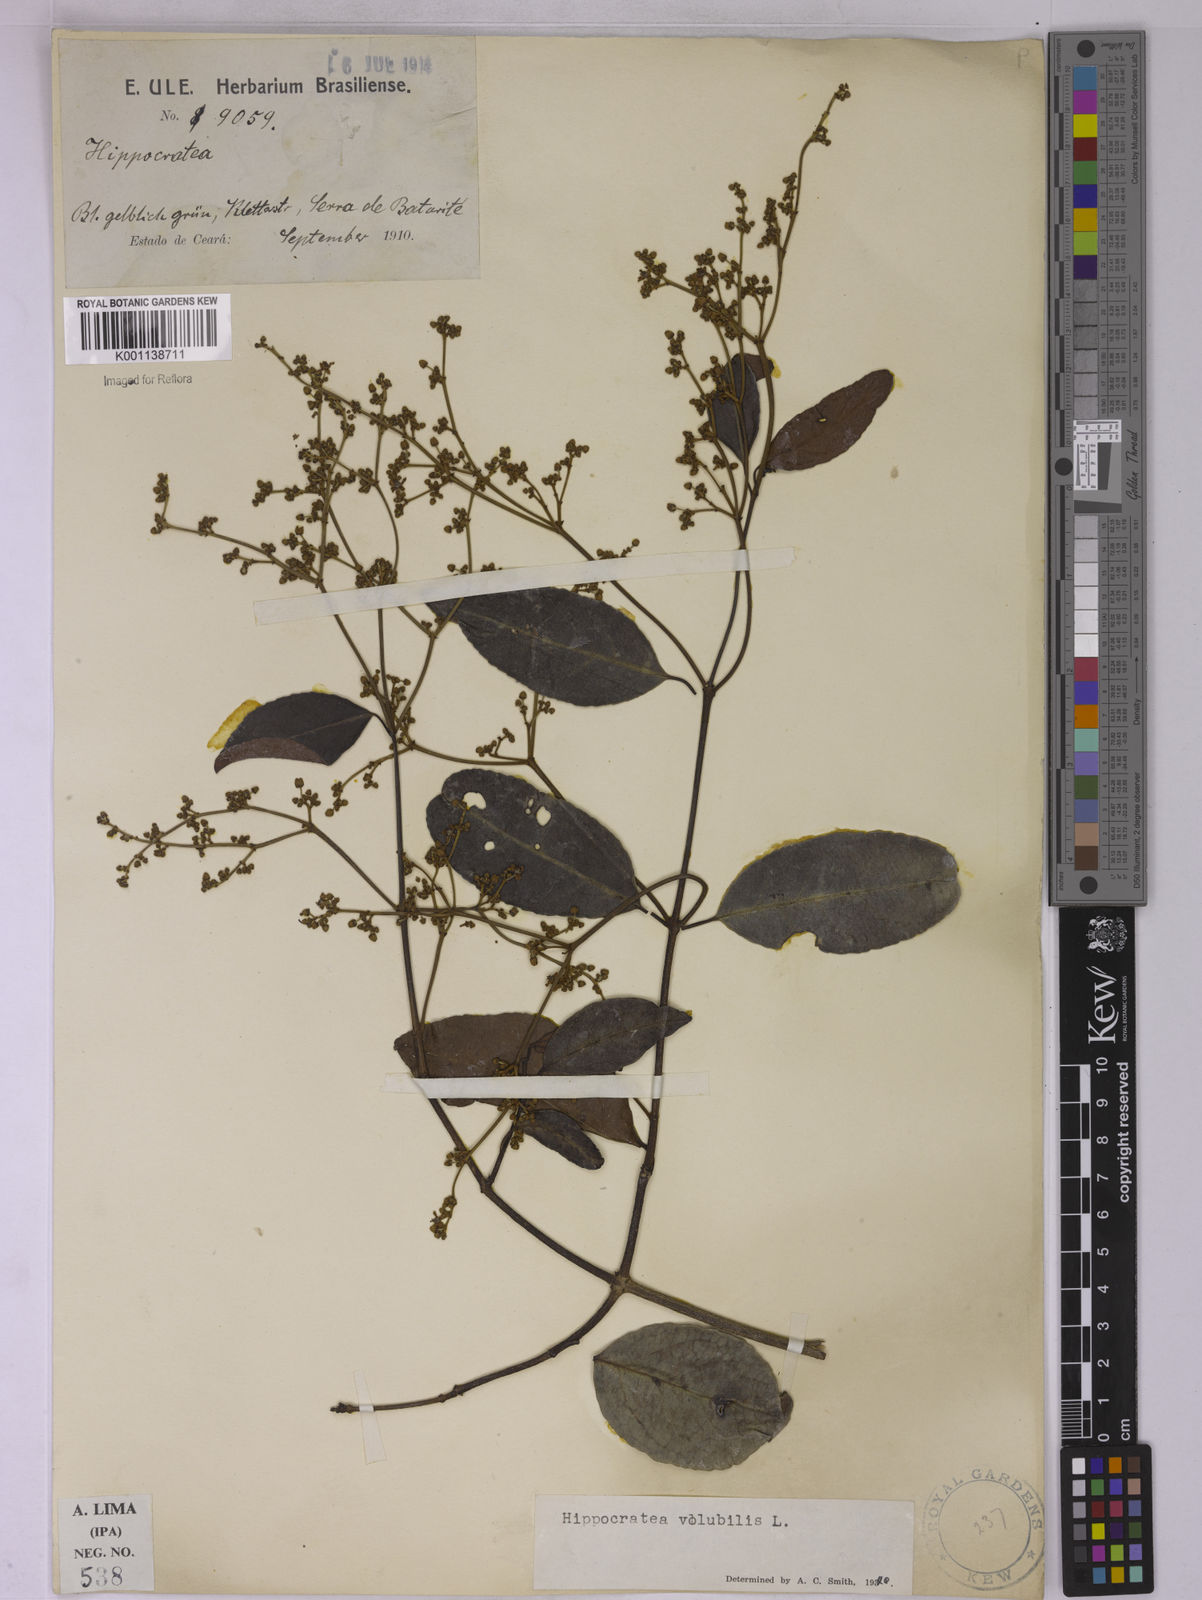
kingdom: Plantae
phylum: Tracheophyta
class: Magnoliopsida
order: Celastrales
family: Celastraceae
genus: Hippocratea
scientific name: Hippocratea volubilis
